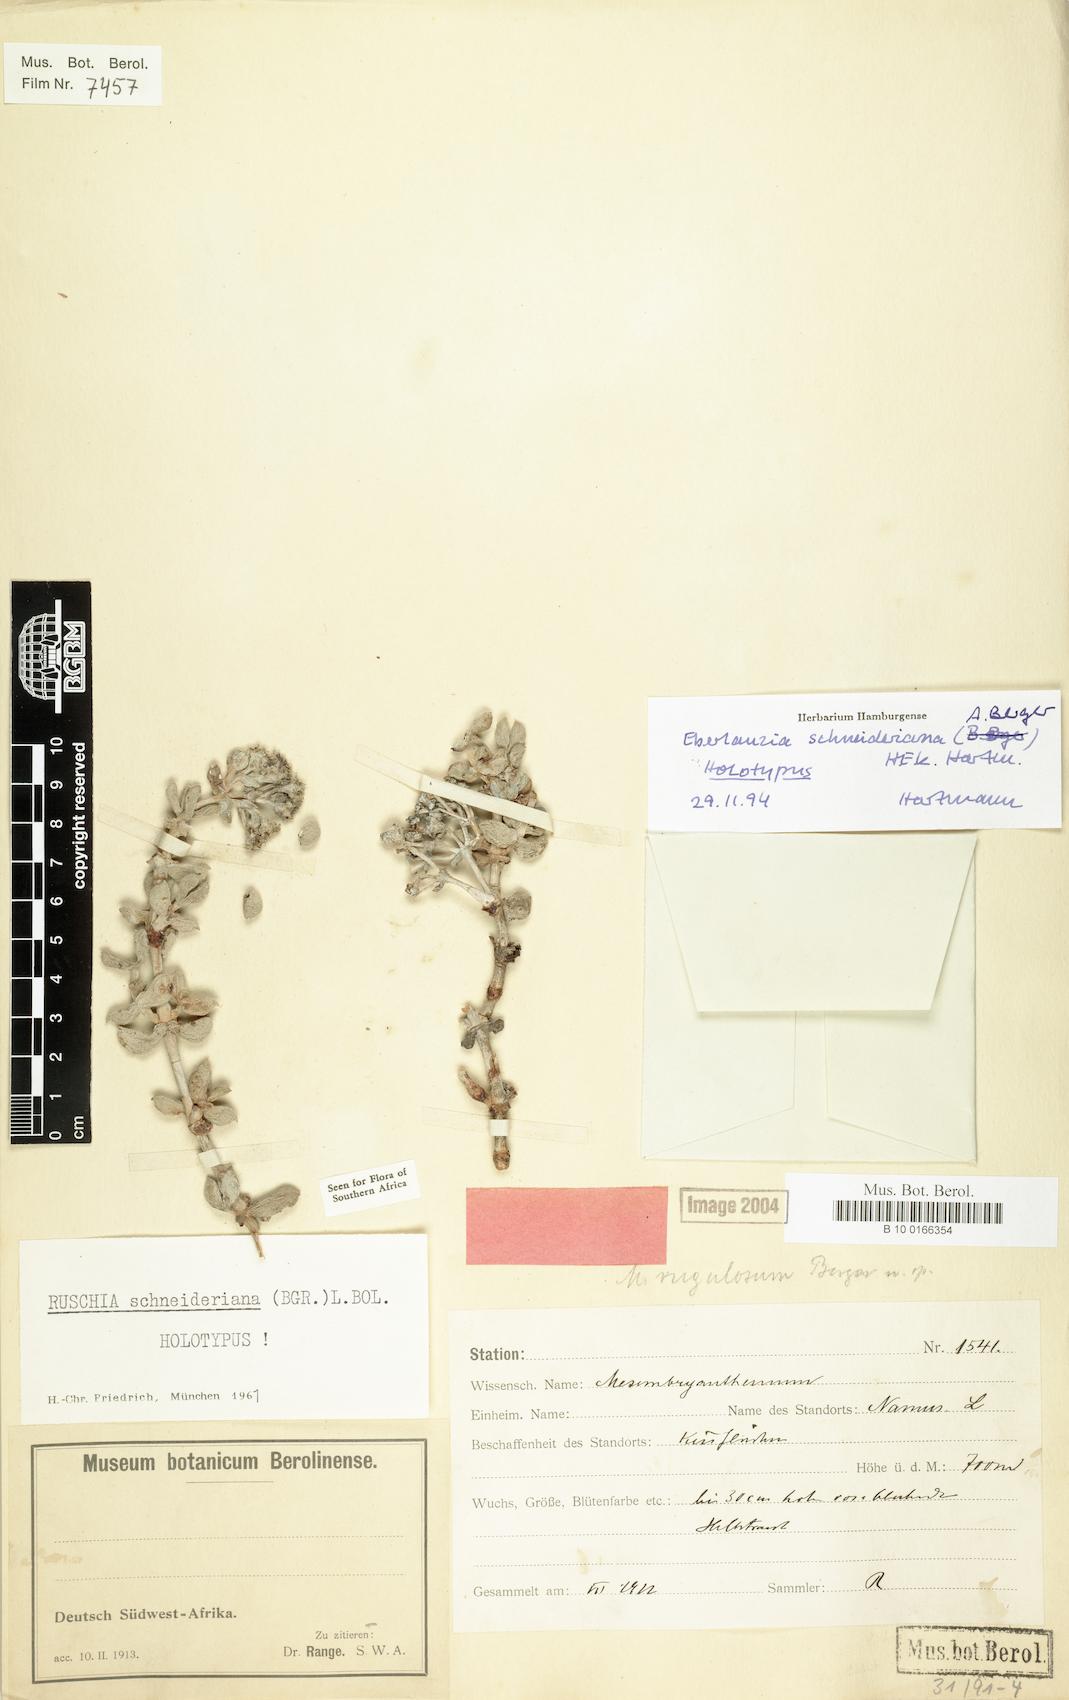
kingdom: Plantae
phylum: Tracheophyta
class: Magnoliopsida
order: Caryophyllales
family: Aizoaceae
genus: Eberlanzia
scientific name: Eberlanzia schneideriana
